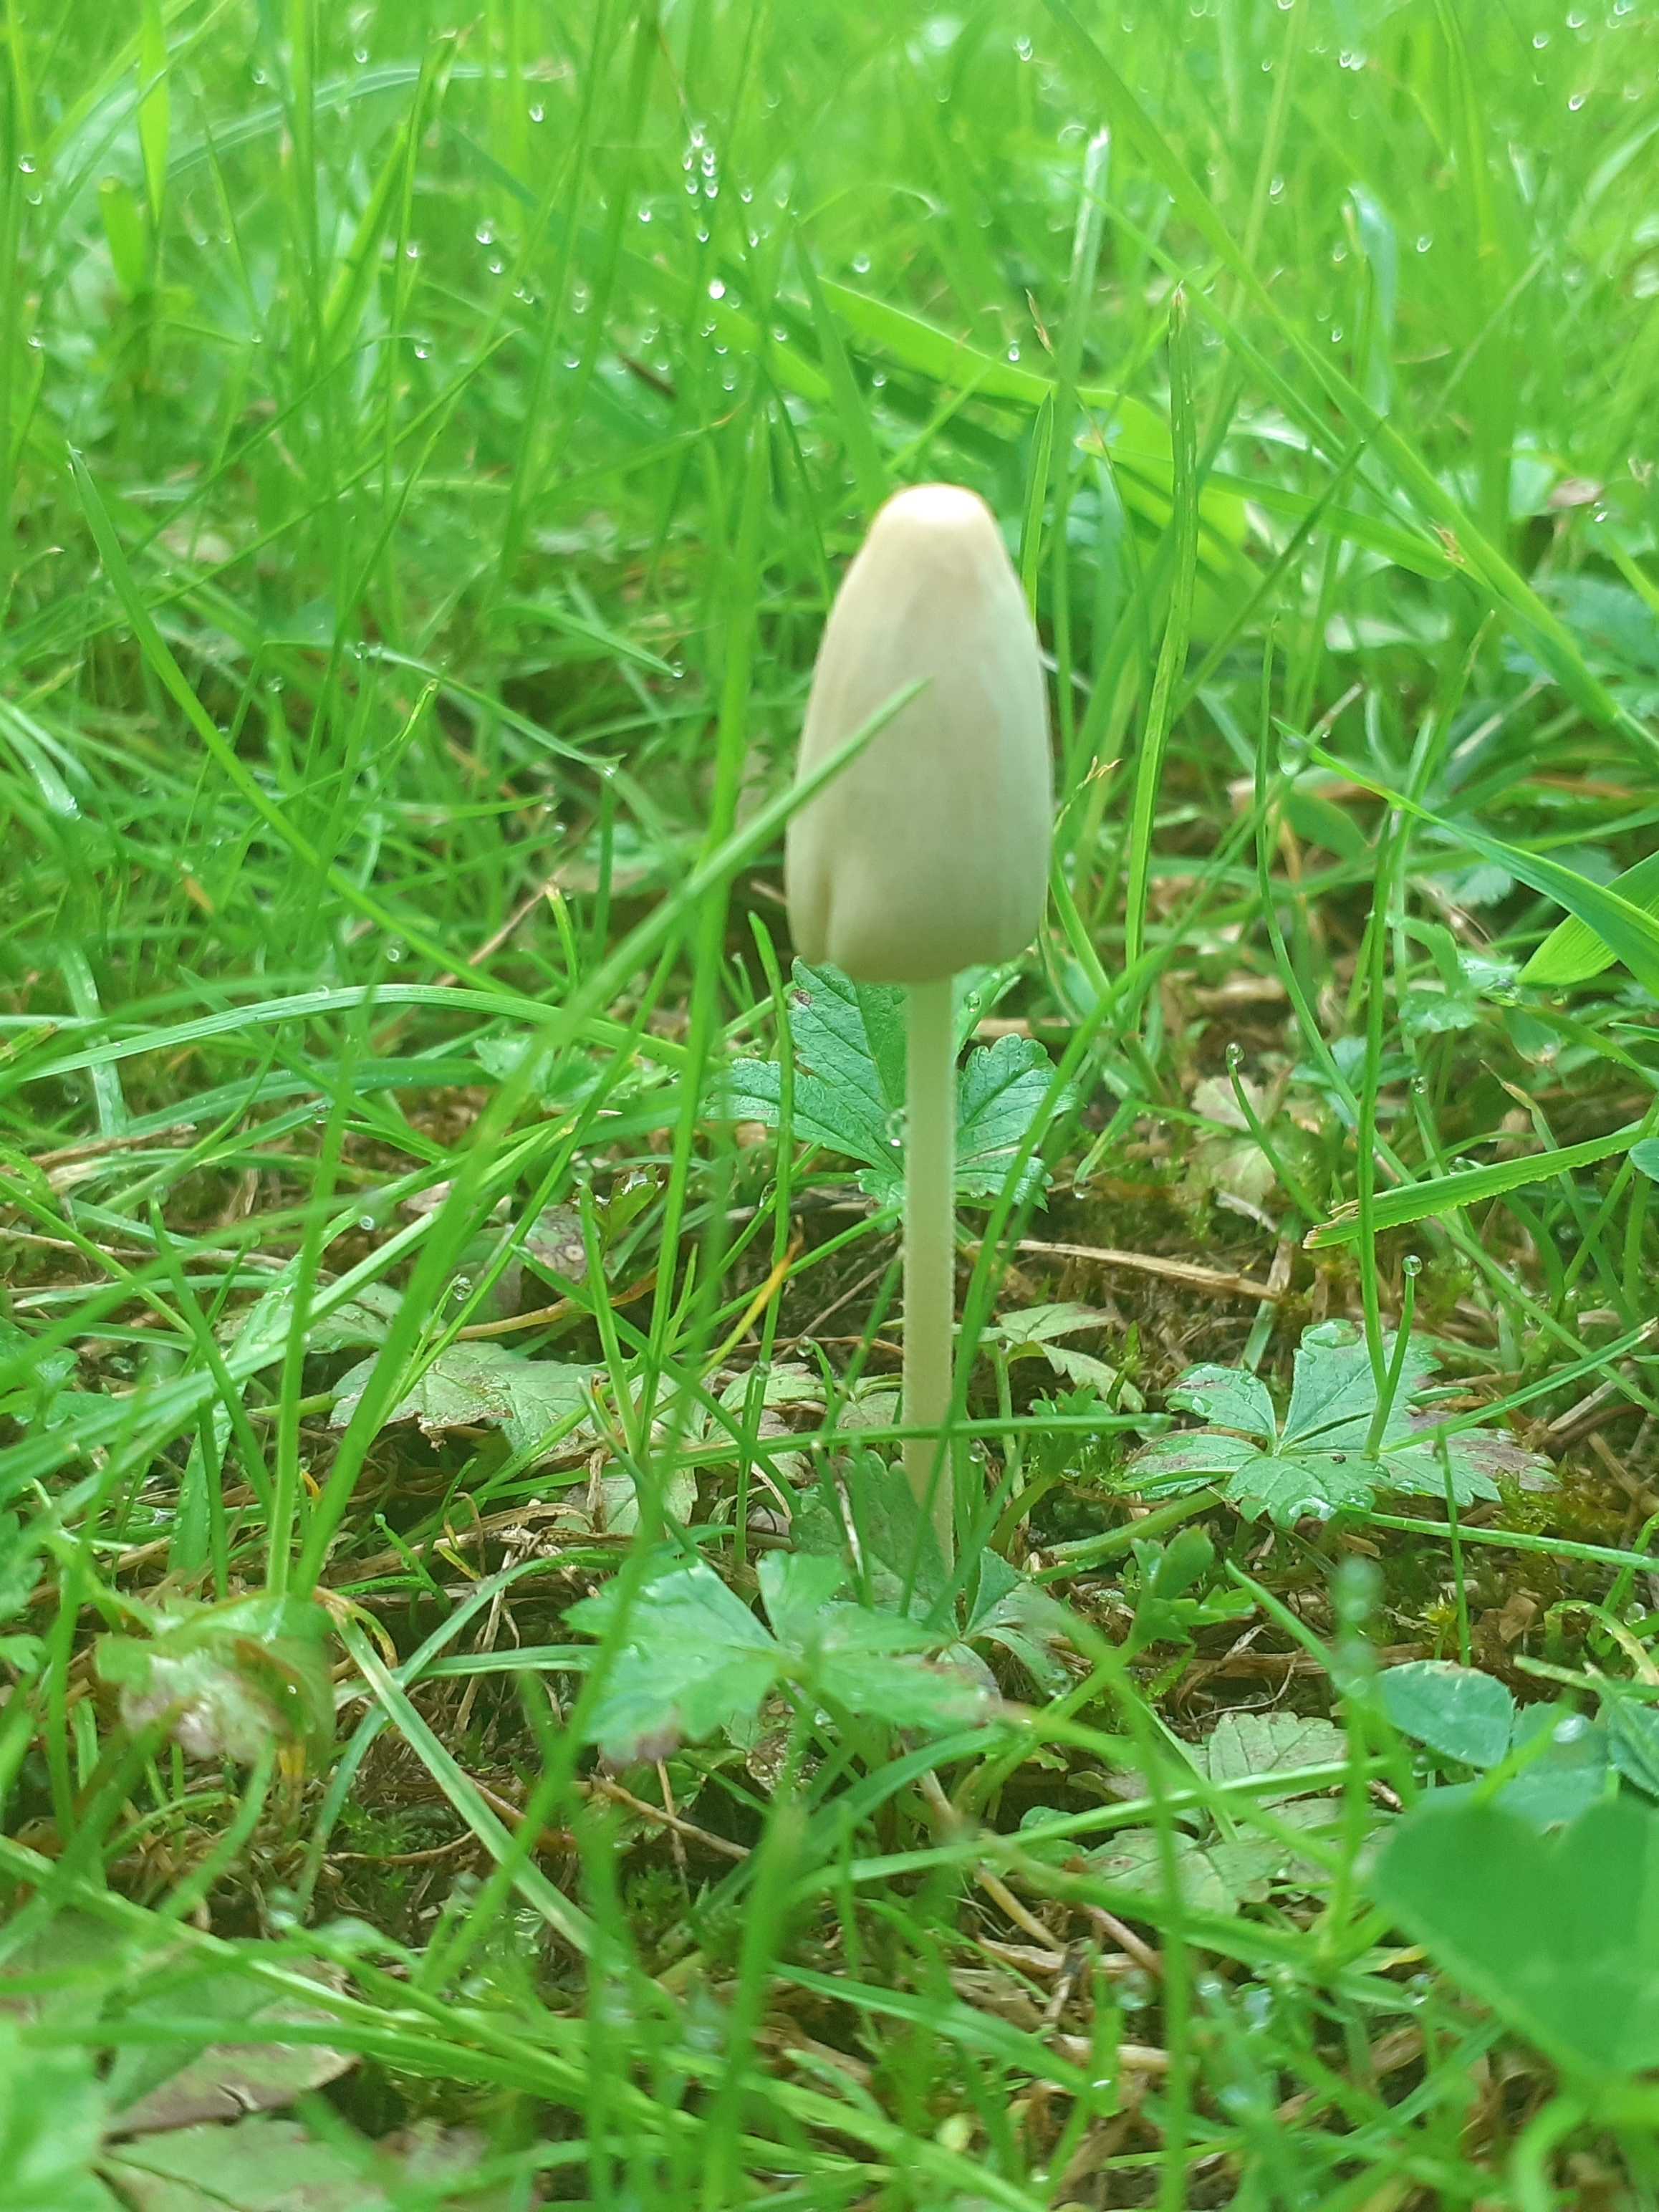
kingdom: Fungi
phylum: Basidiomycota
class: Agaricomycetes
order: Agaricales
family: Bolbitiaceae
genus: Conocybe
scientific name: Conocybe apala
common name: mælkehvid keglehat
